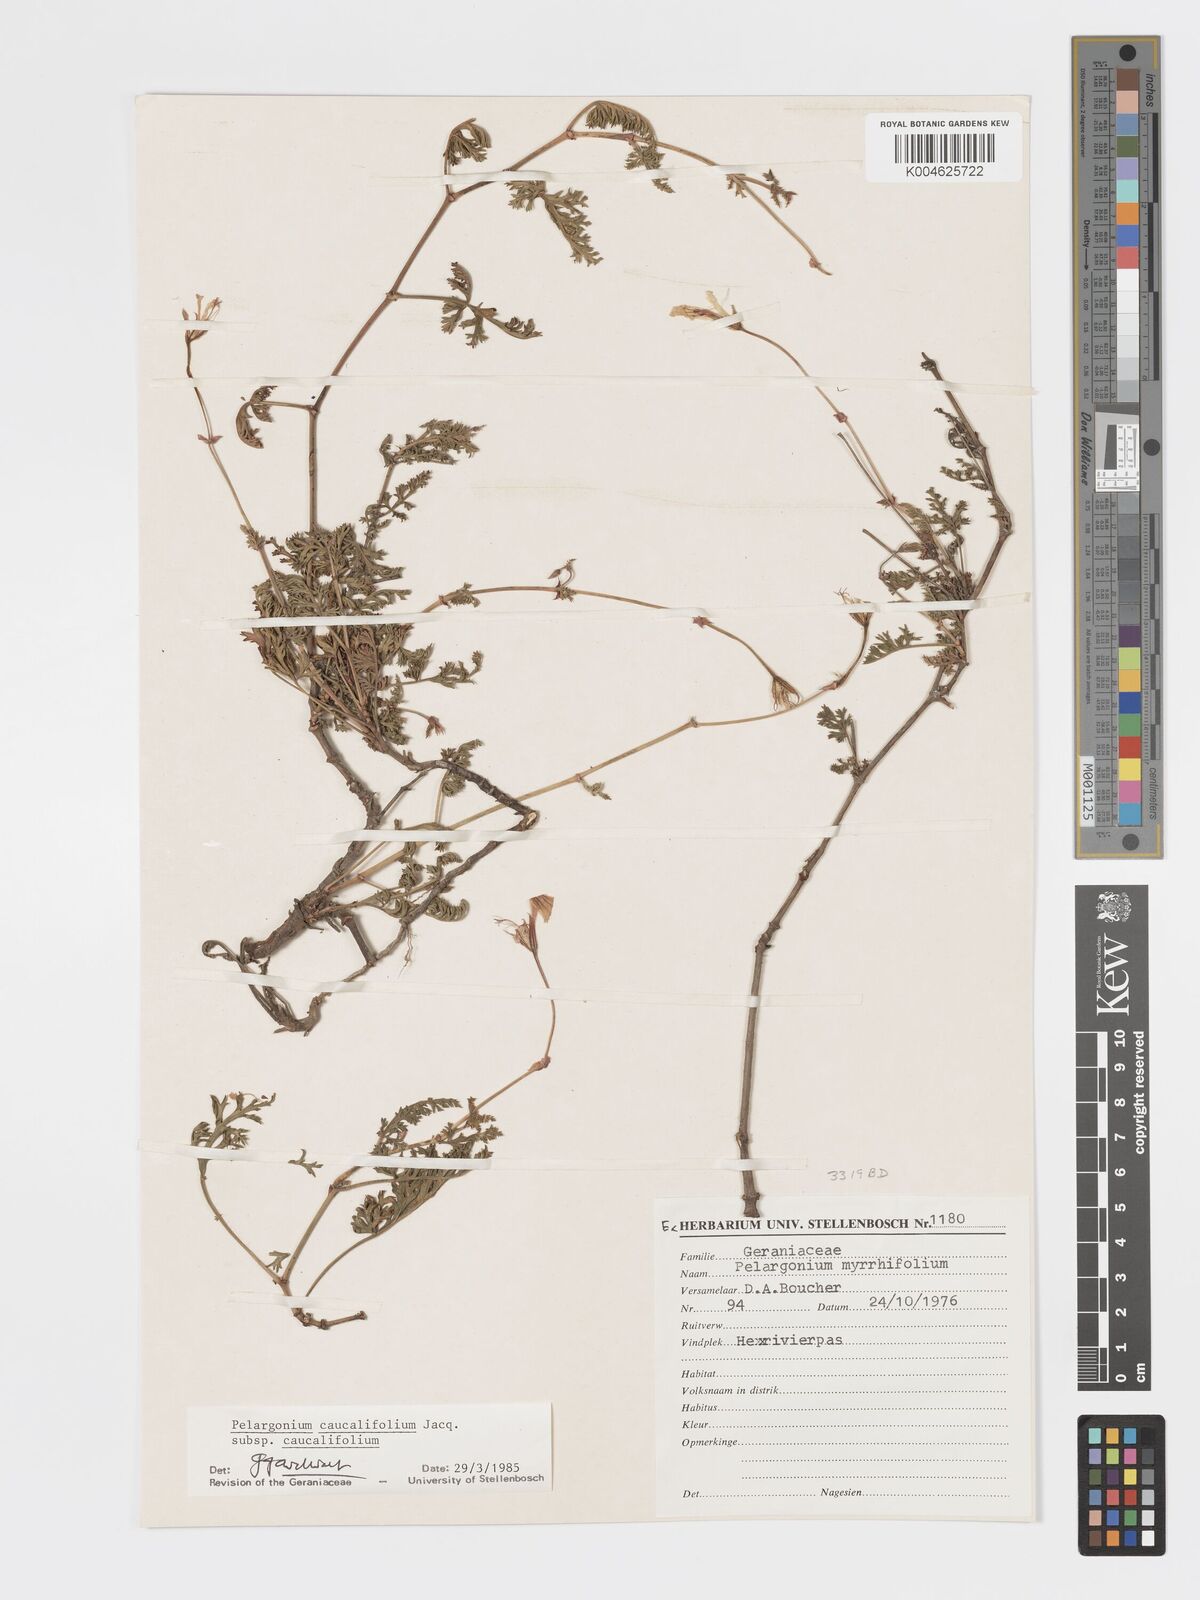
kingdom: Plantae
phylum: Tracheophyta
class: Magnoliopsida
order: Geraniales
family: Geraniaceae
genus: Pelargonium
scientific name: Pelargonium caucalifolium
